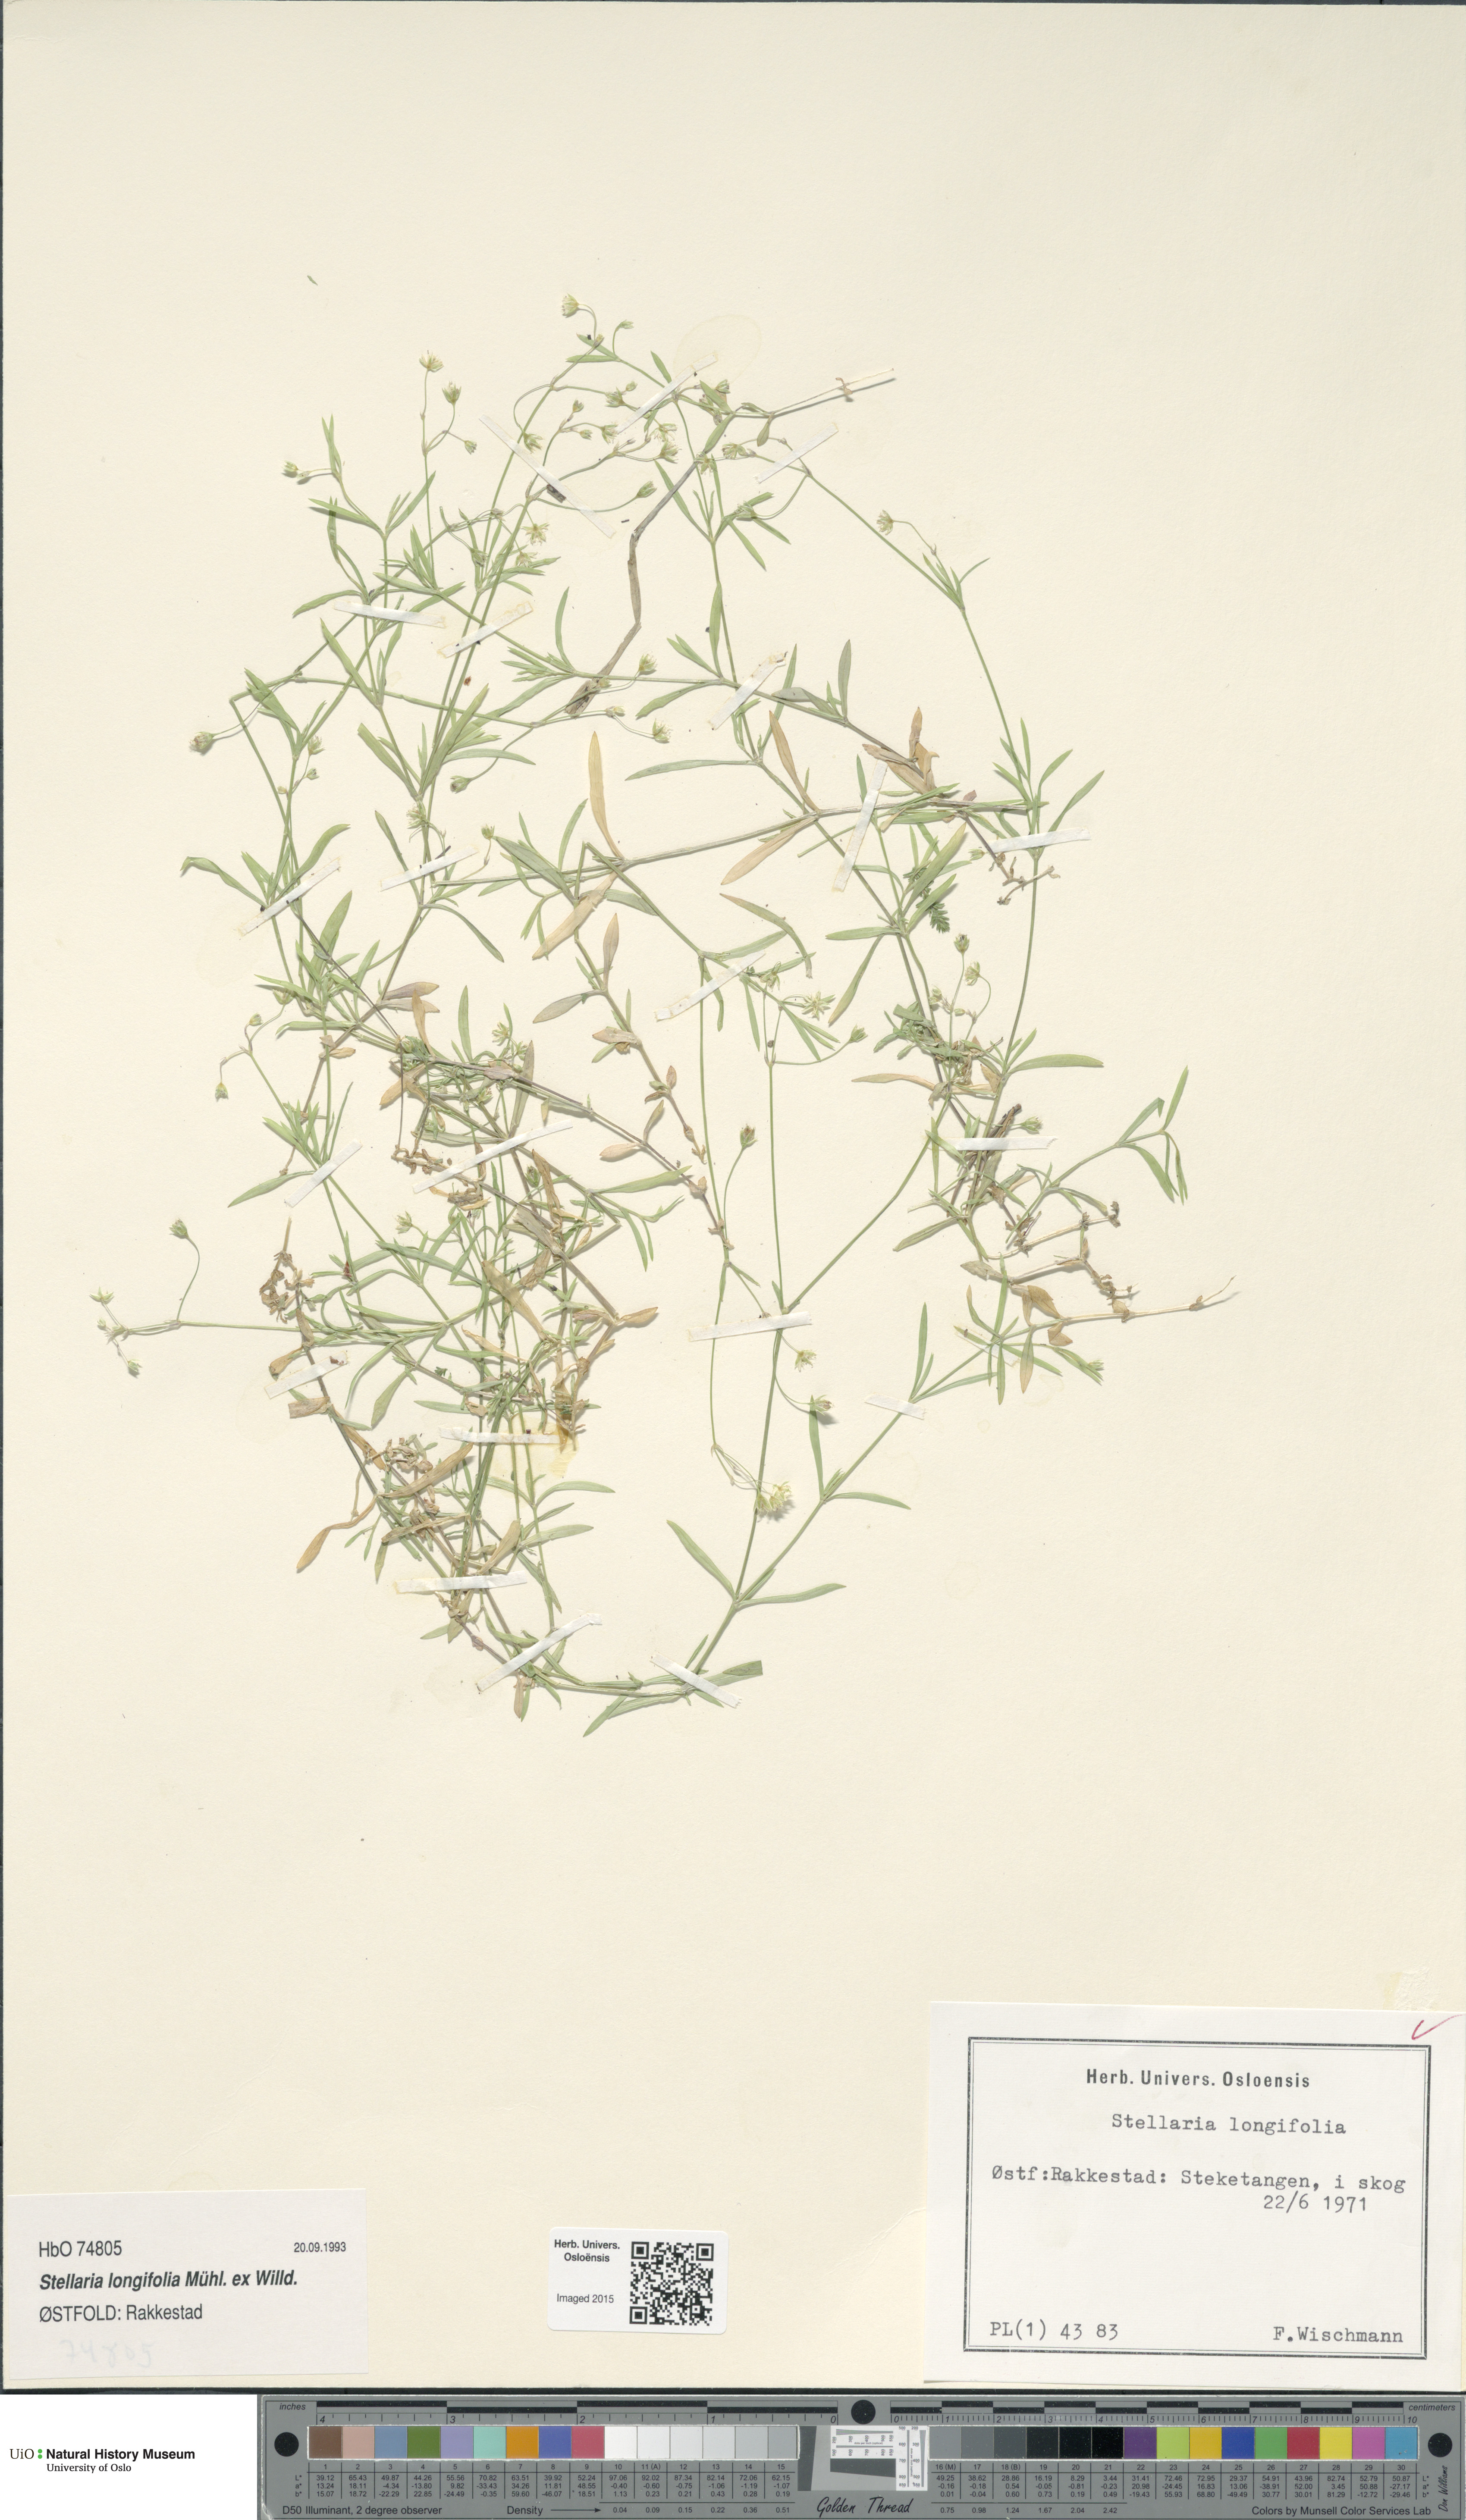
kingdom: Plantae
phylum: Tracheophyta
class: Magnoliopsida
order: Caryophyllales
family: Caryophyllaceae
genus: Stellaria
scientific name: Stellaria longifolia
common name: Long-leaved chickweed
